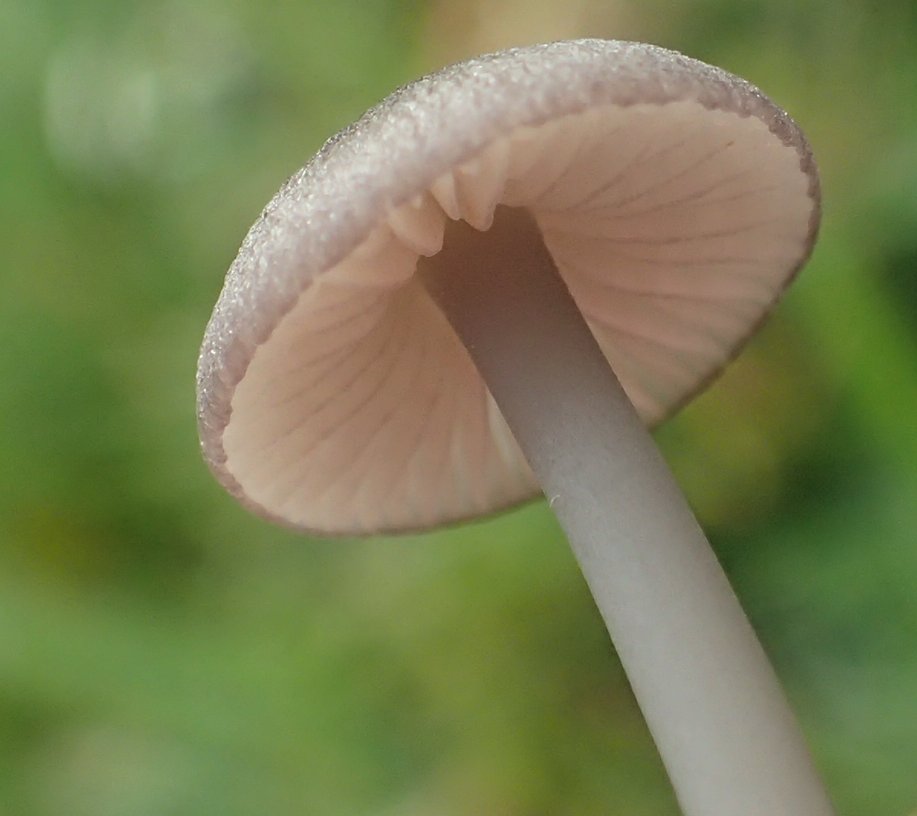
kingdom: Fungi
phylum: Basidiomycota
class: Agaricomycetes
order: Agaricales
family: Entolomataceae
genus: Entoloma
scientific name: Entoloma
